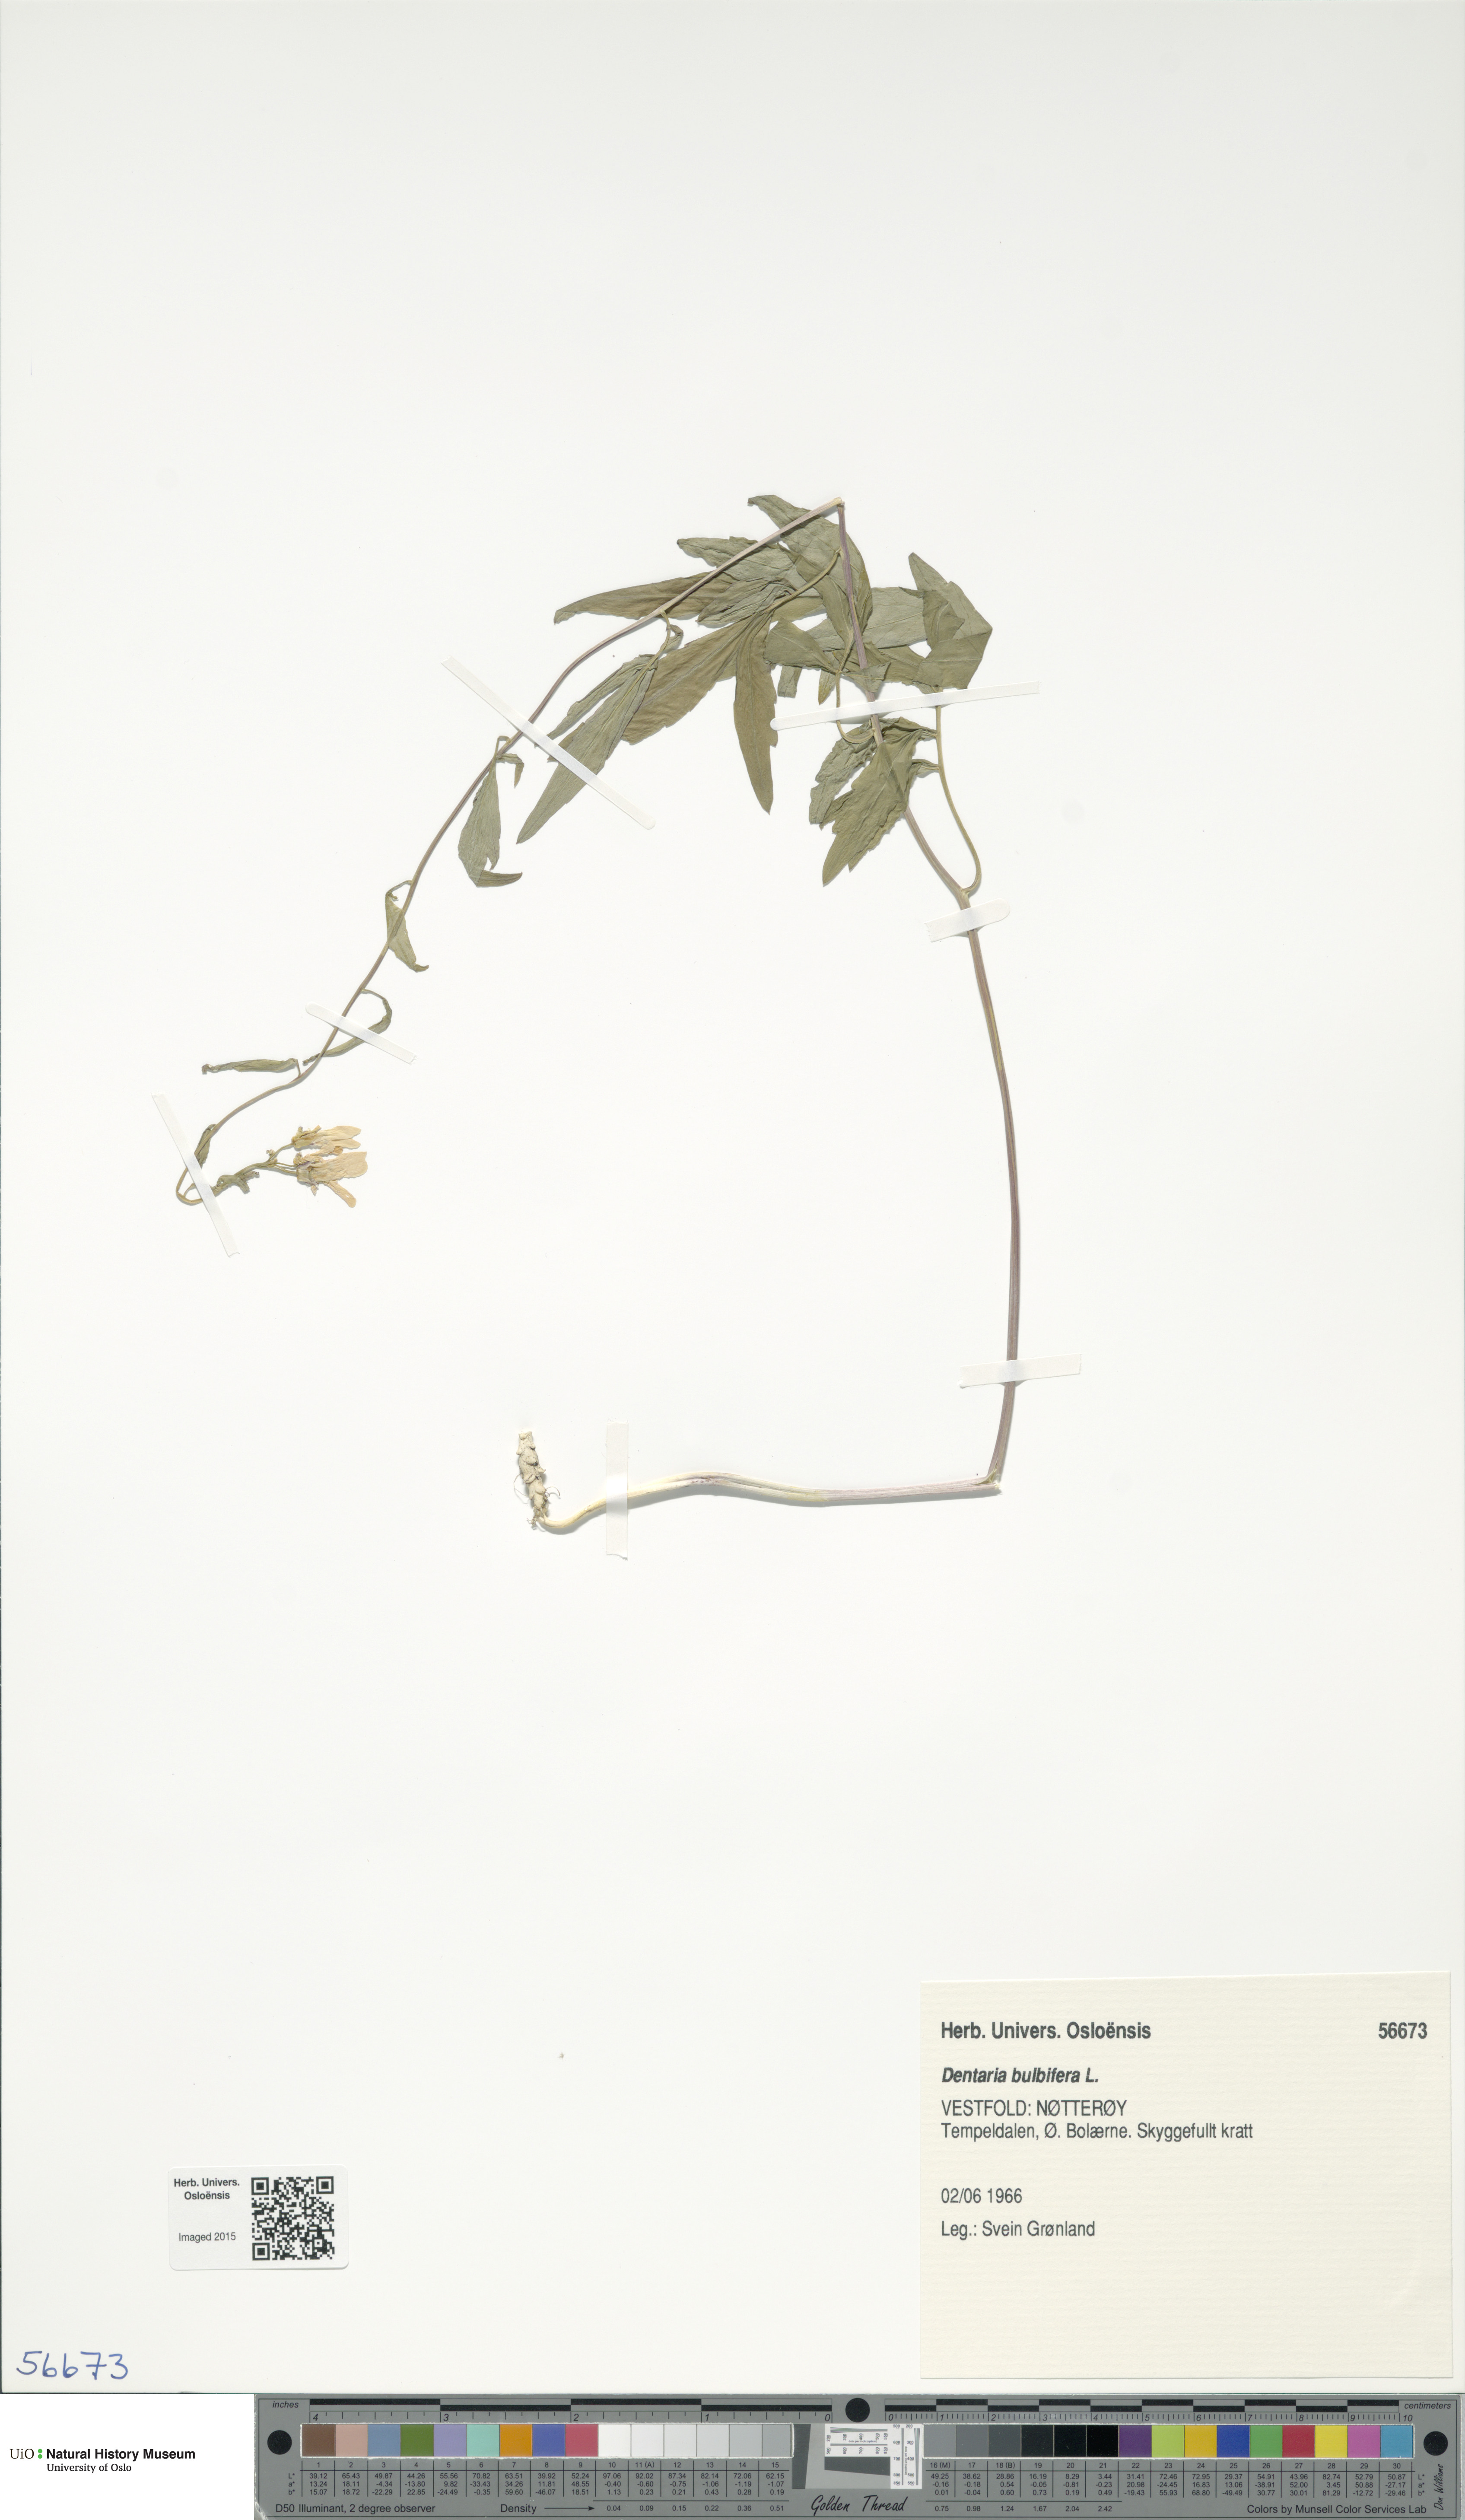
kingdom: Plantae
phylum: Tracheophyta
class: Magnoliopsida
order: Brassicales
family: Brassicaceae
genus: Cardamine
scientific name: Cardamine bulbifera
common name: Coralroot bittercress
